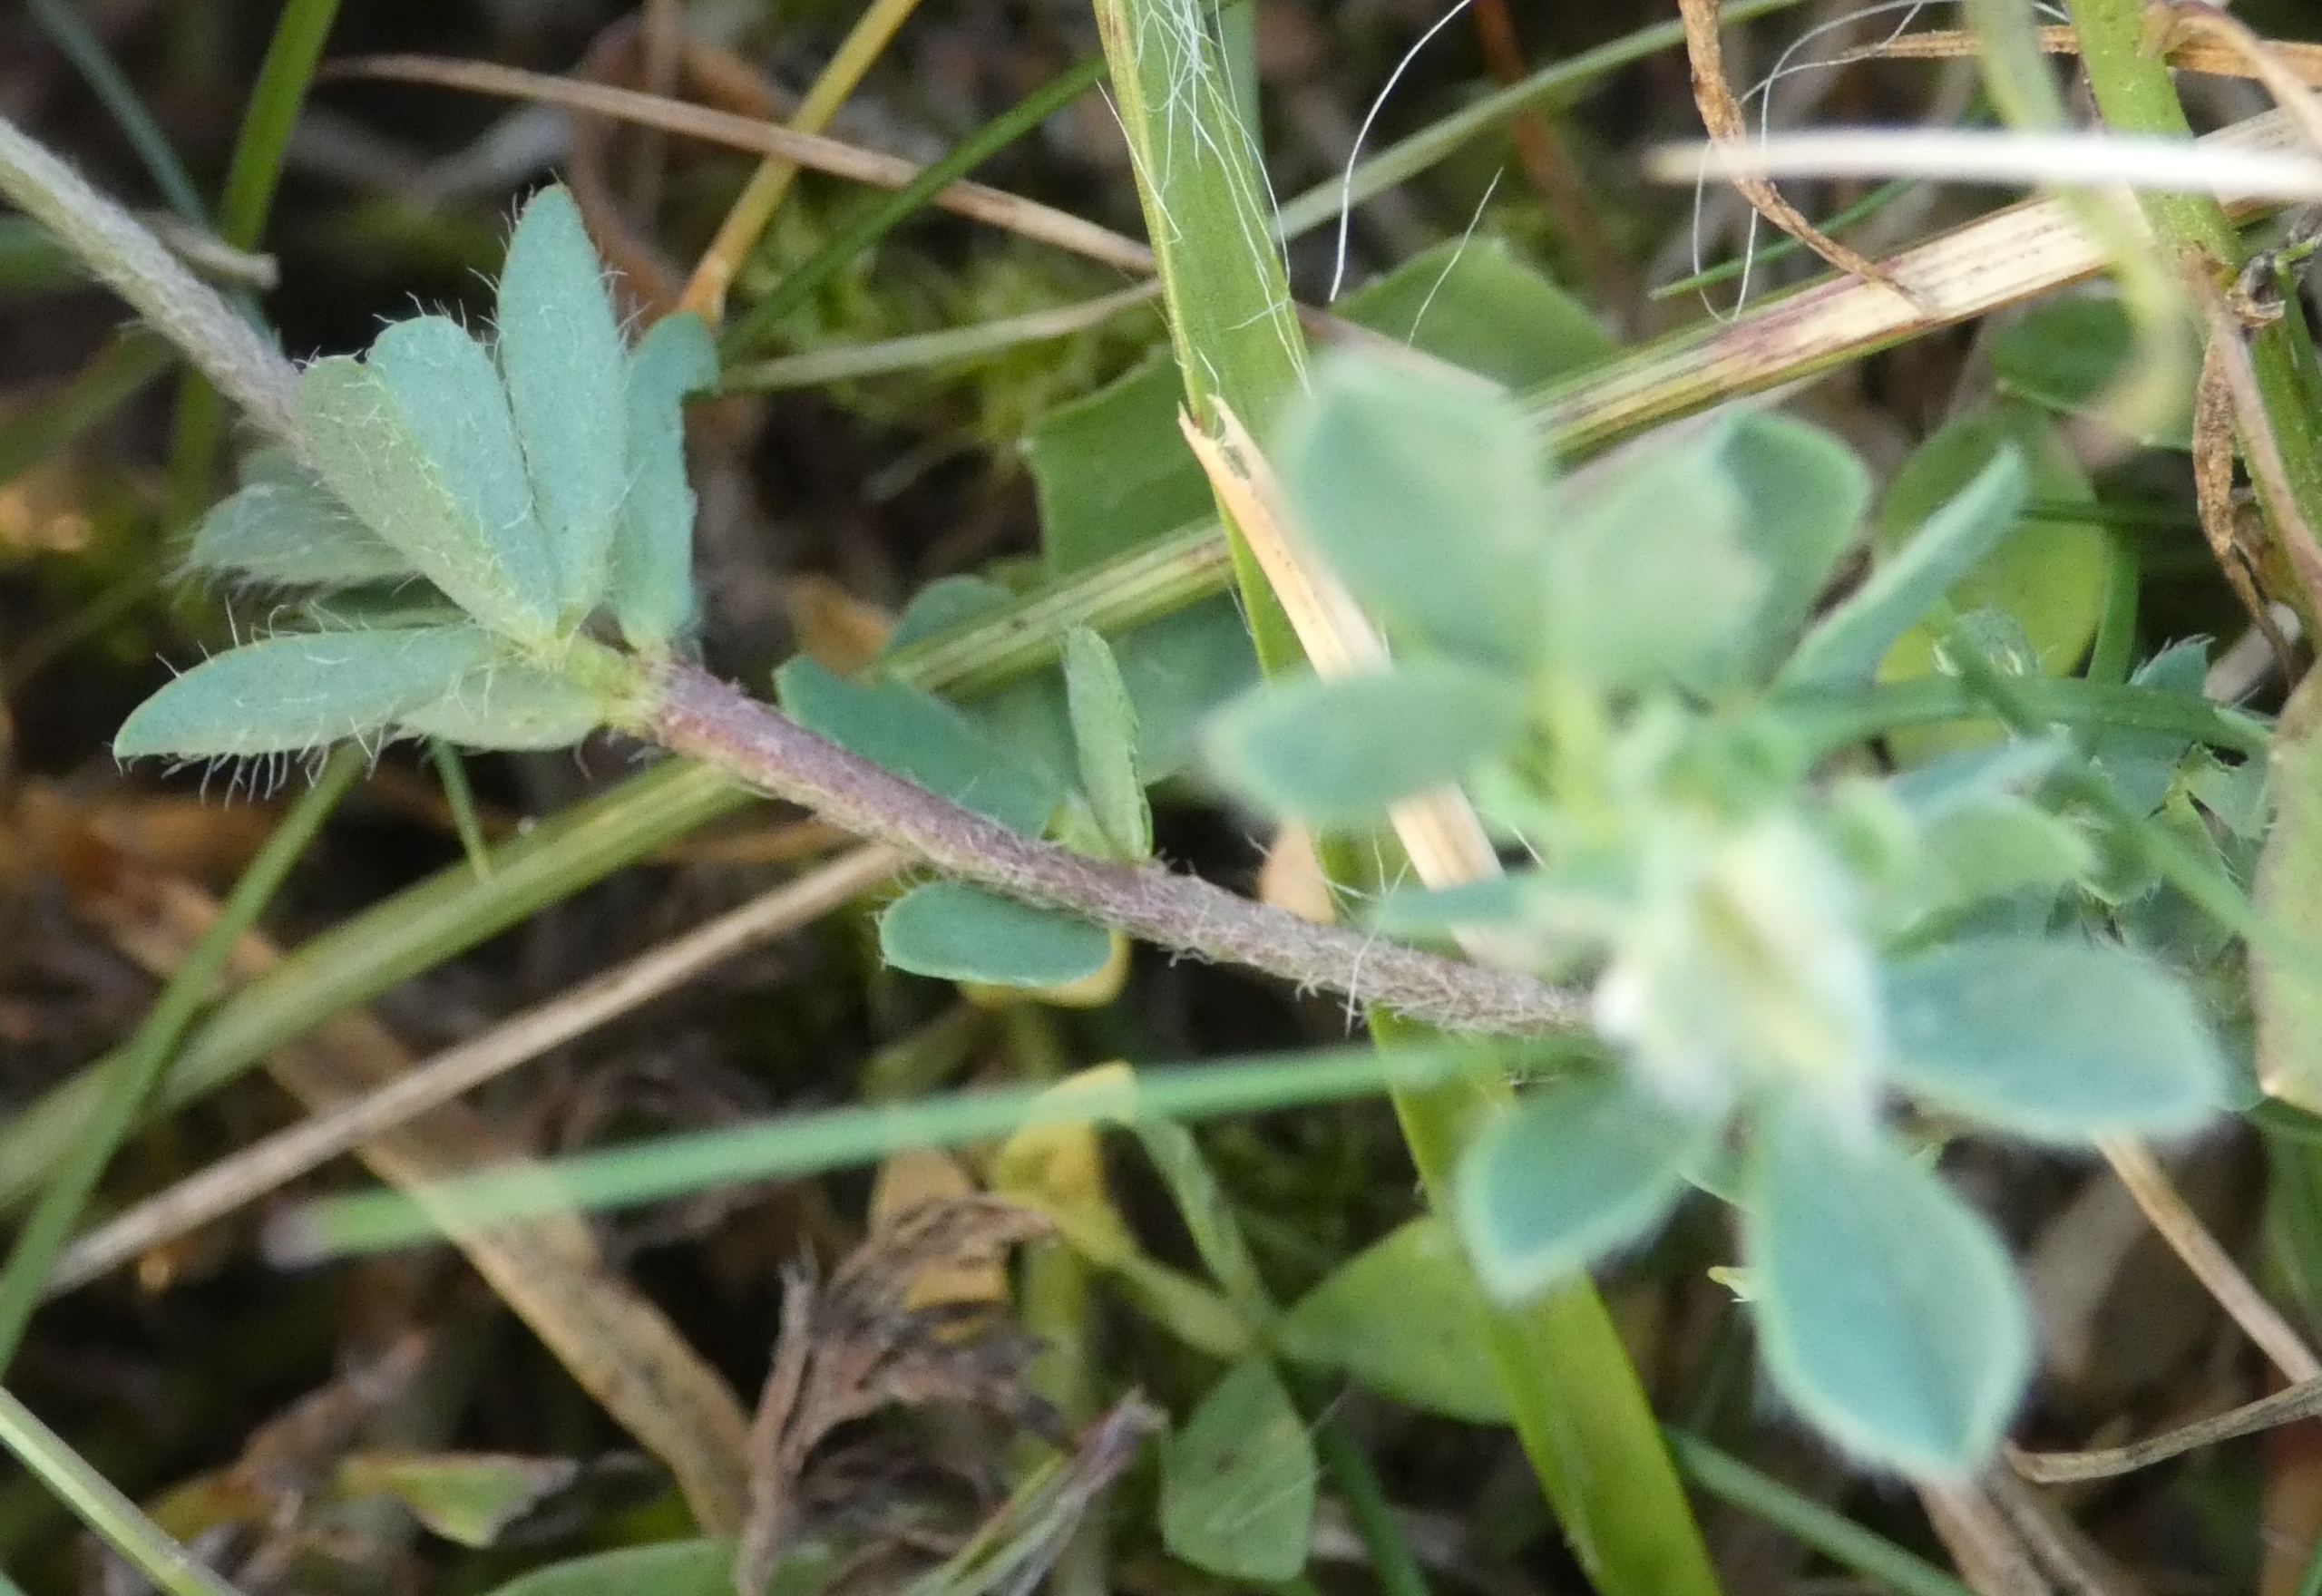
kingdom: Plantae
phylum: Tracheophyta
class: Magnoliopsida
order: Fabales
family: Fabaceae
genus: Lotus
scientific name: Lotus maritimus
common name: Kantbælg
